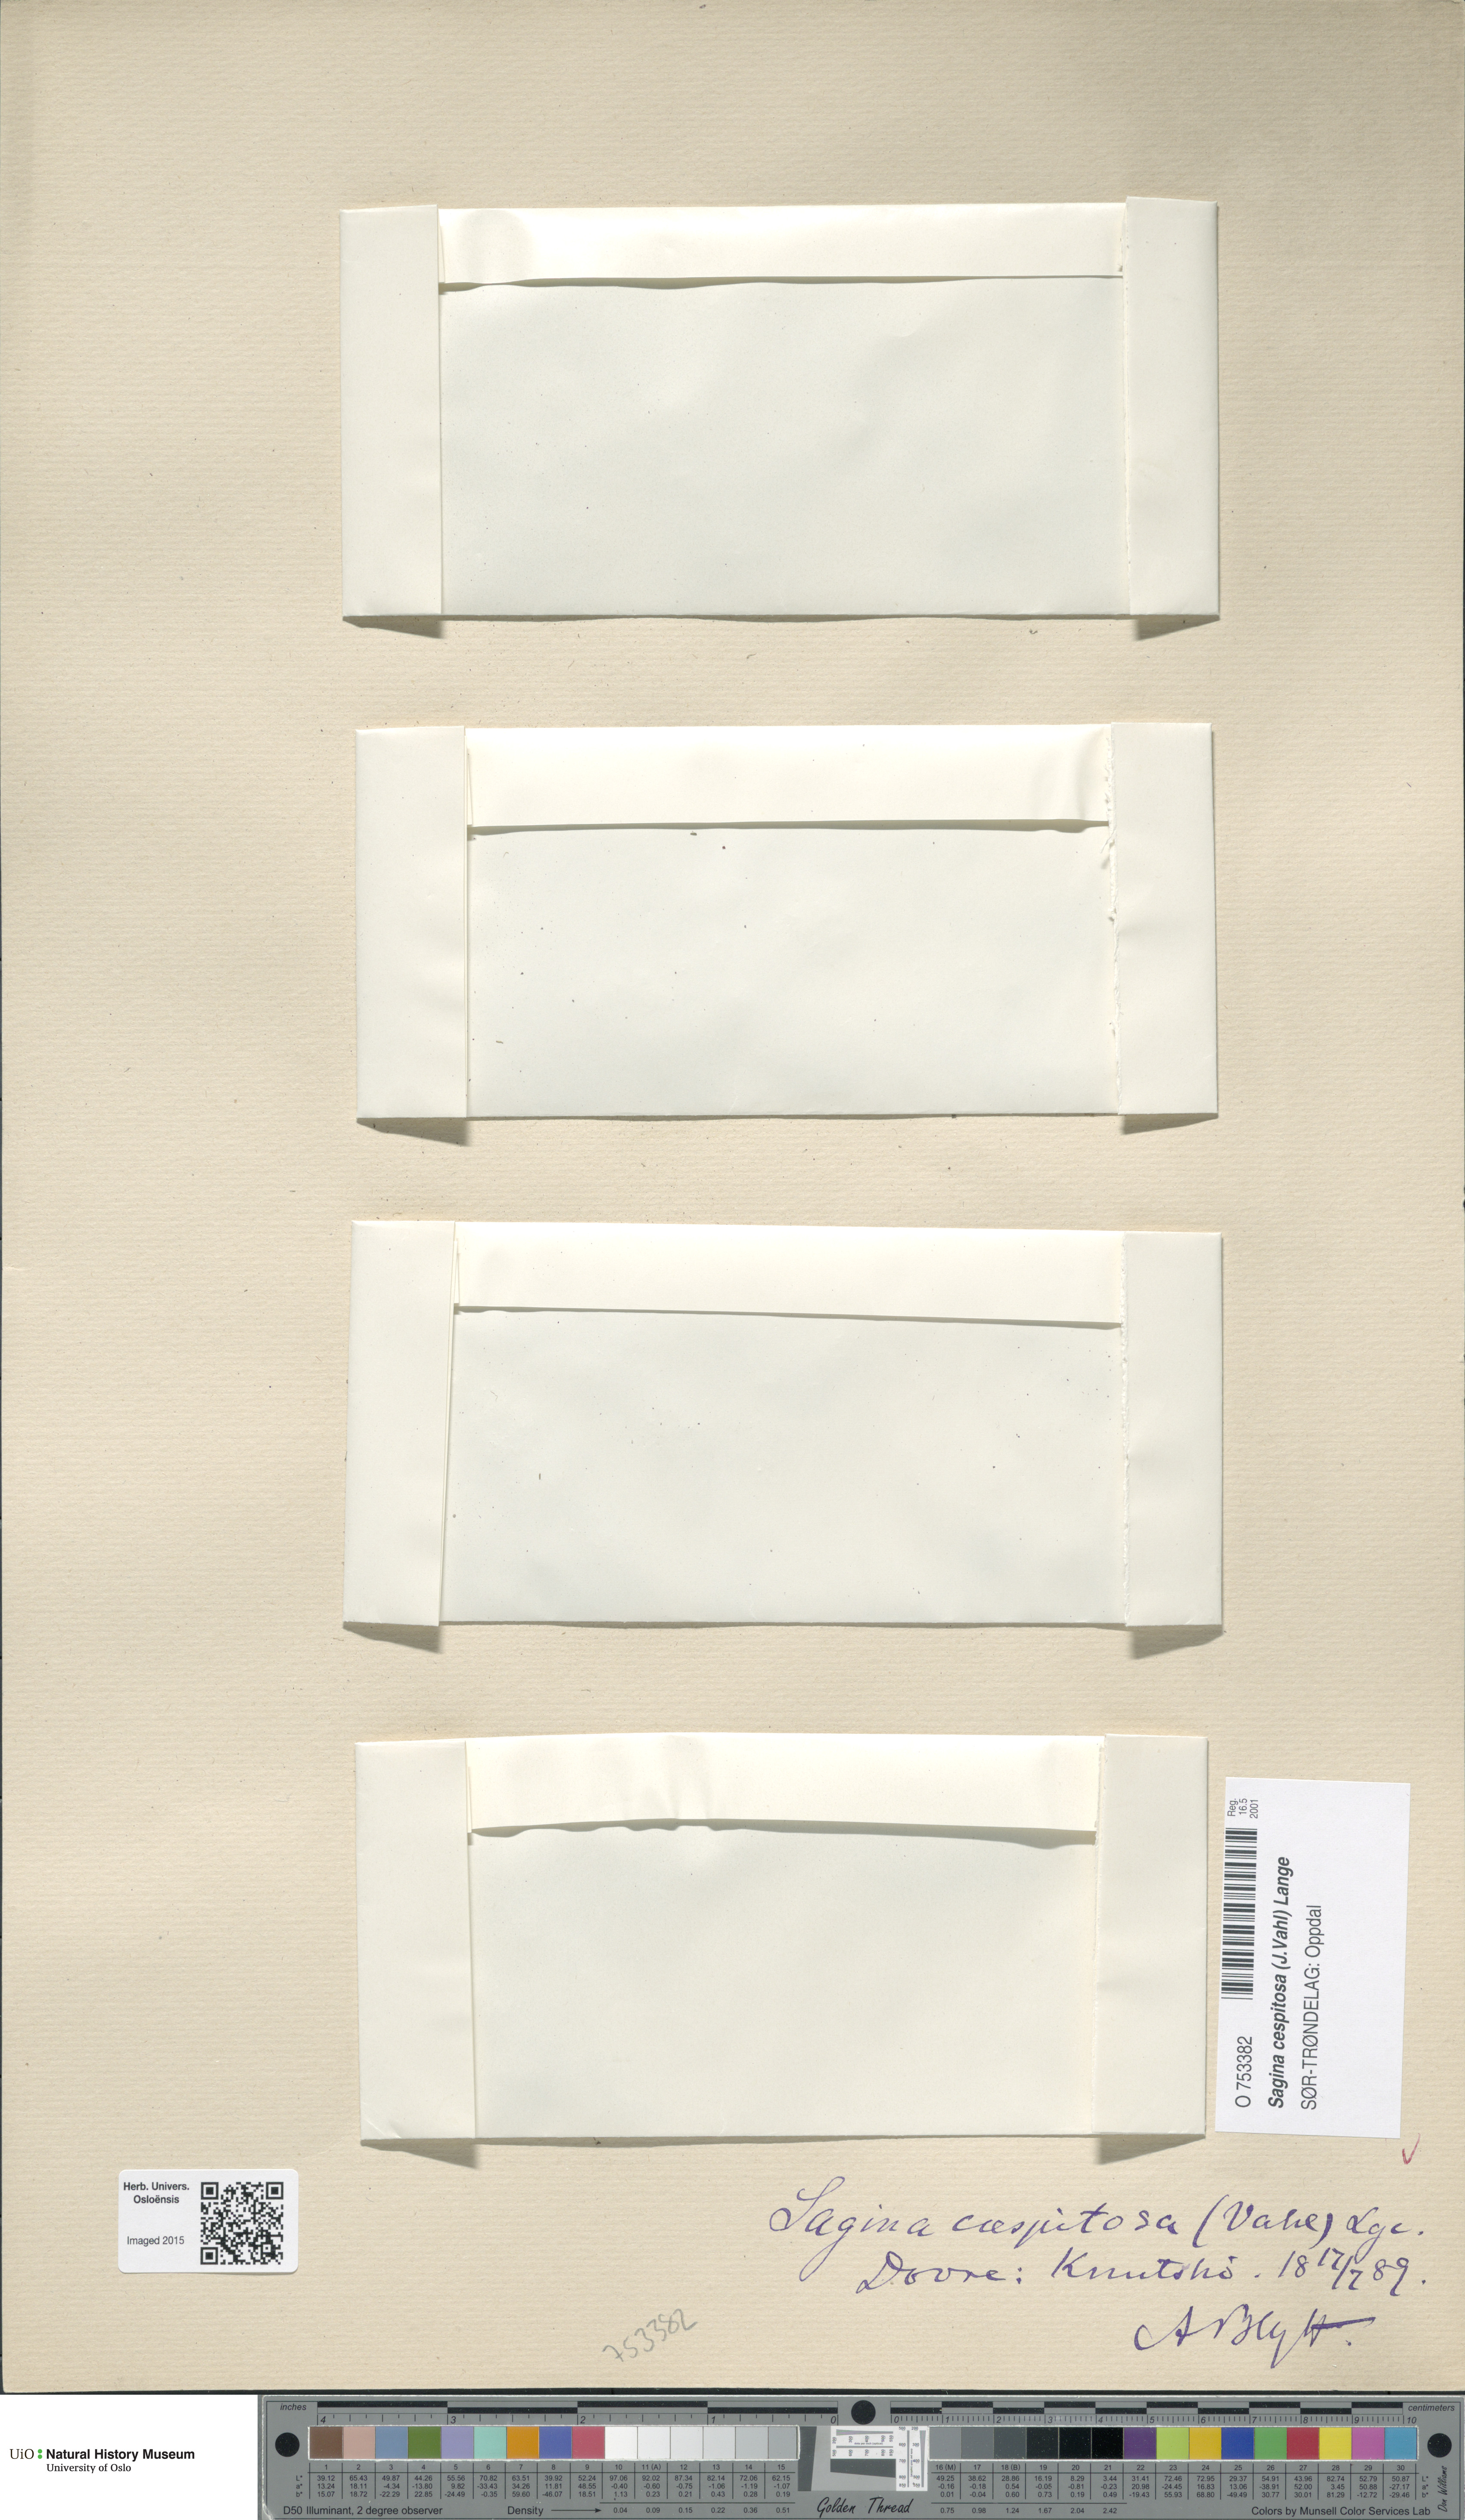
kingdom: Plantae
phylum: Tracheophyta
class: Magnoliopsida
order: Caryophyllales
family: Caryophyllaceae
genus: Sagina
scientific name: Sagina caespitosa
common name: Tufted pearlwort
